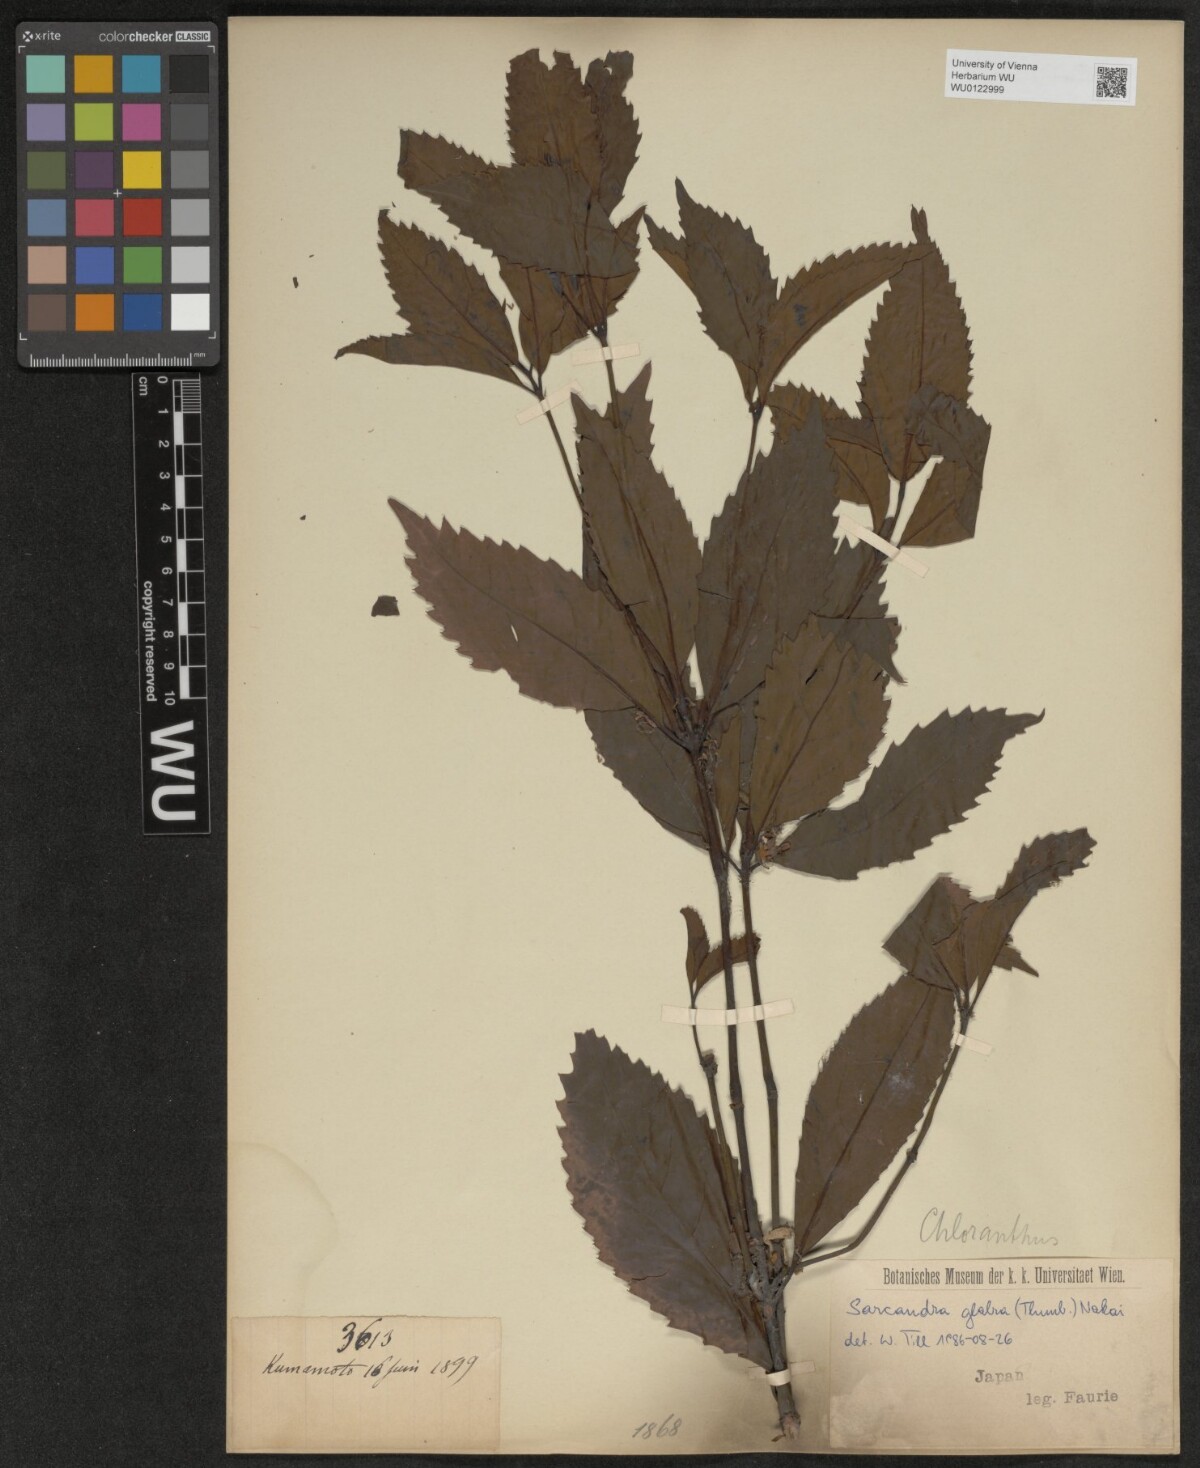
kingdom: Plantae
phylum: Tracheophyta
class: Magnoliopsida
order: Chloranthales
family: Chloranthaceae
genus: Sarcandra
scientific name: Sarcandra glabra
